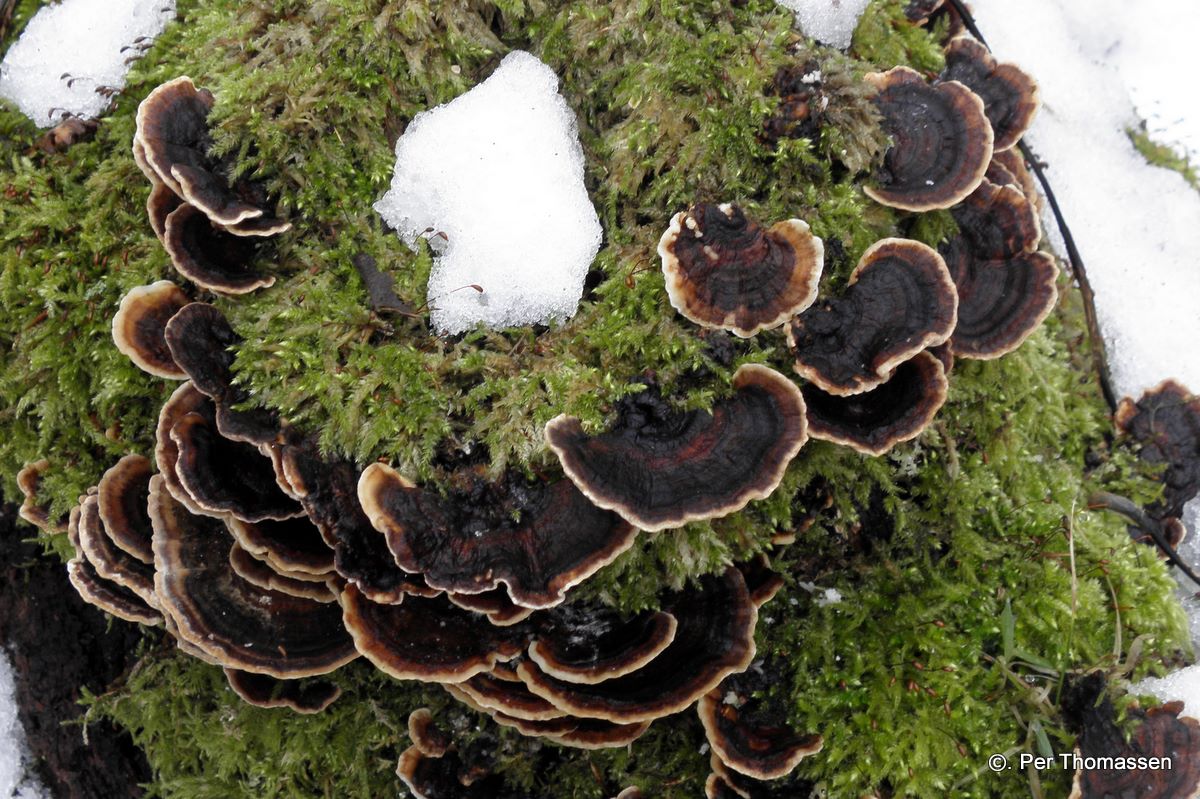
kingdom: Fungi
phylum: Basidiomycota
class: Agaricomycetes
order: Polyporales
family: Polyporaceae
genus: Trametes
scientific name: Trametes versicolor
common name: broget læderporesvamp
